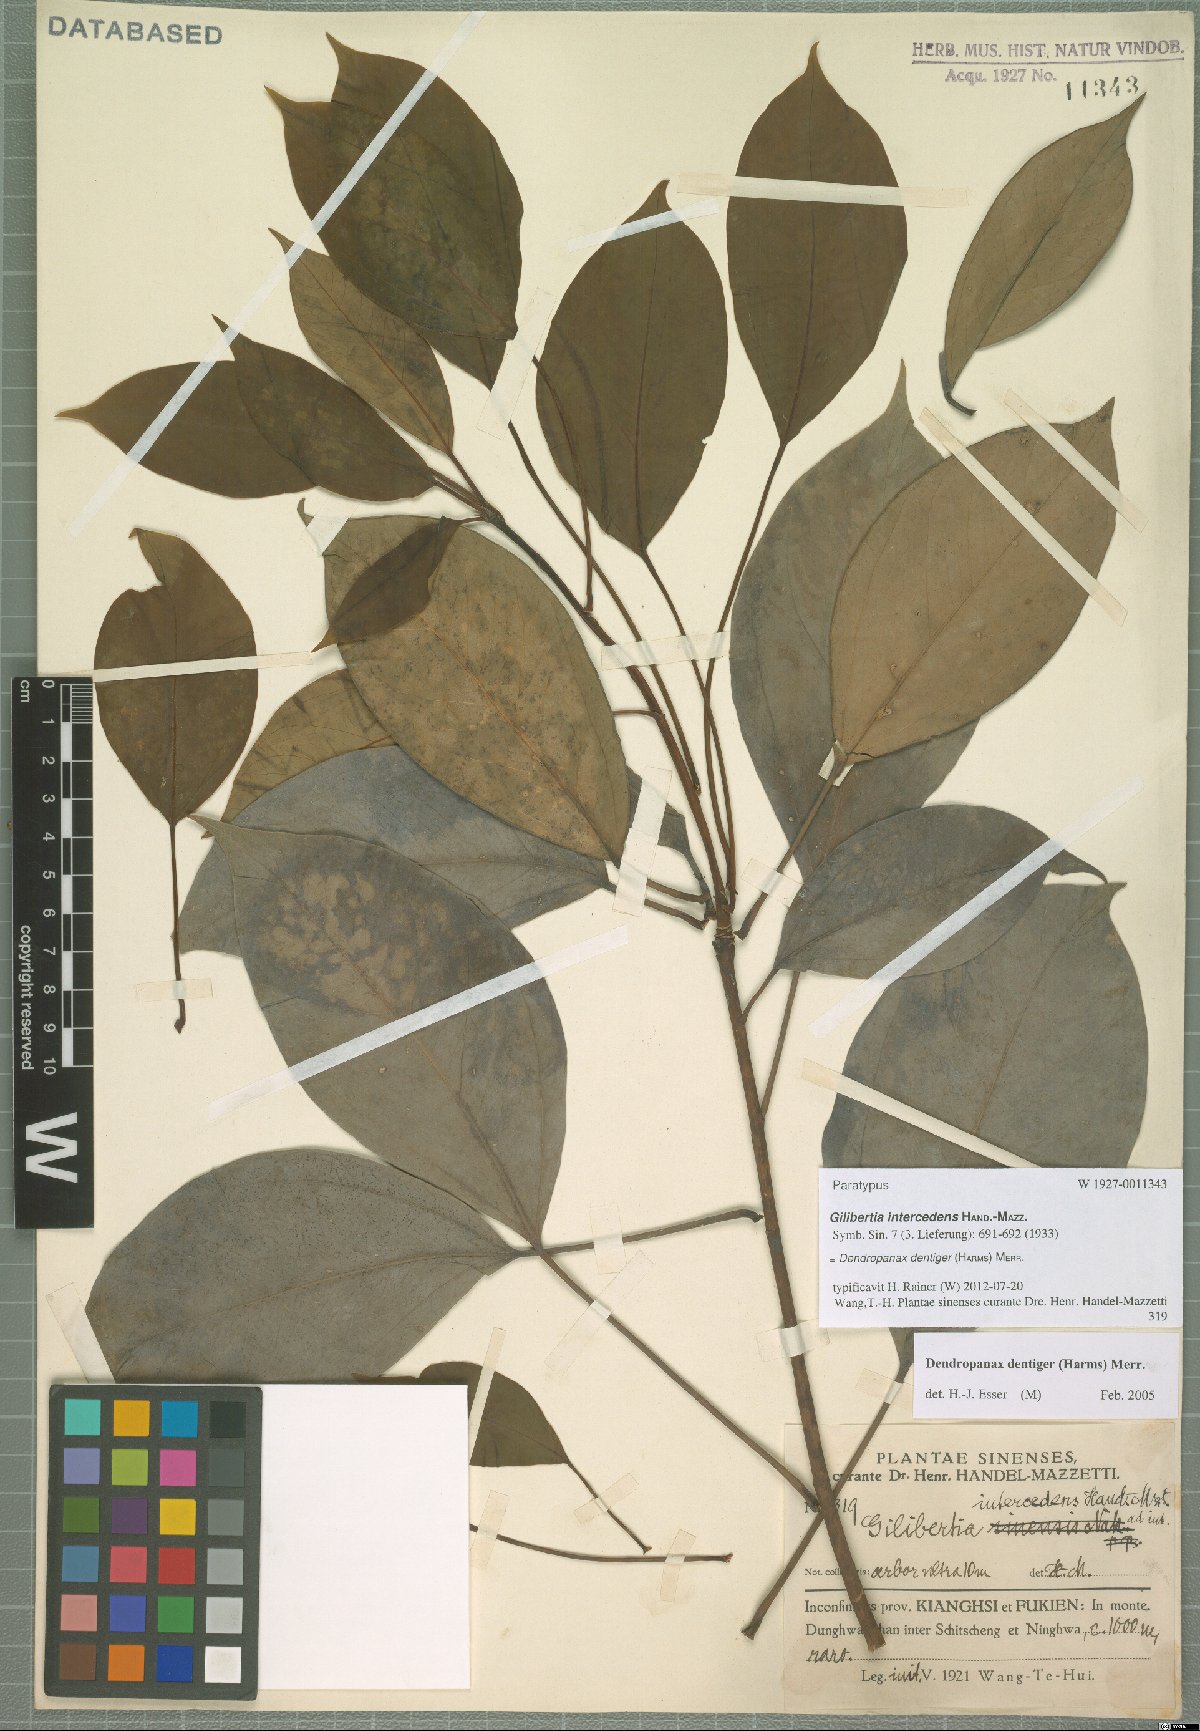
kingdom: Plantae
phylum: Tracheophyta
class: Magnoliopsida
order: Apiales
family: Araliaceae
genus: Dendropanax
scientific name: Dendropanax dentiger
